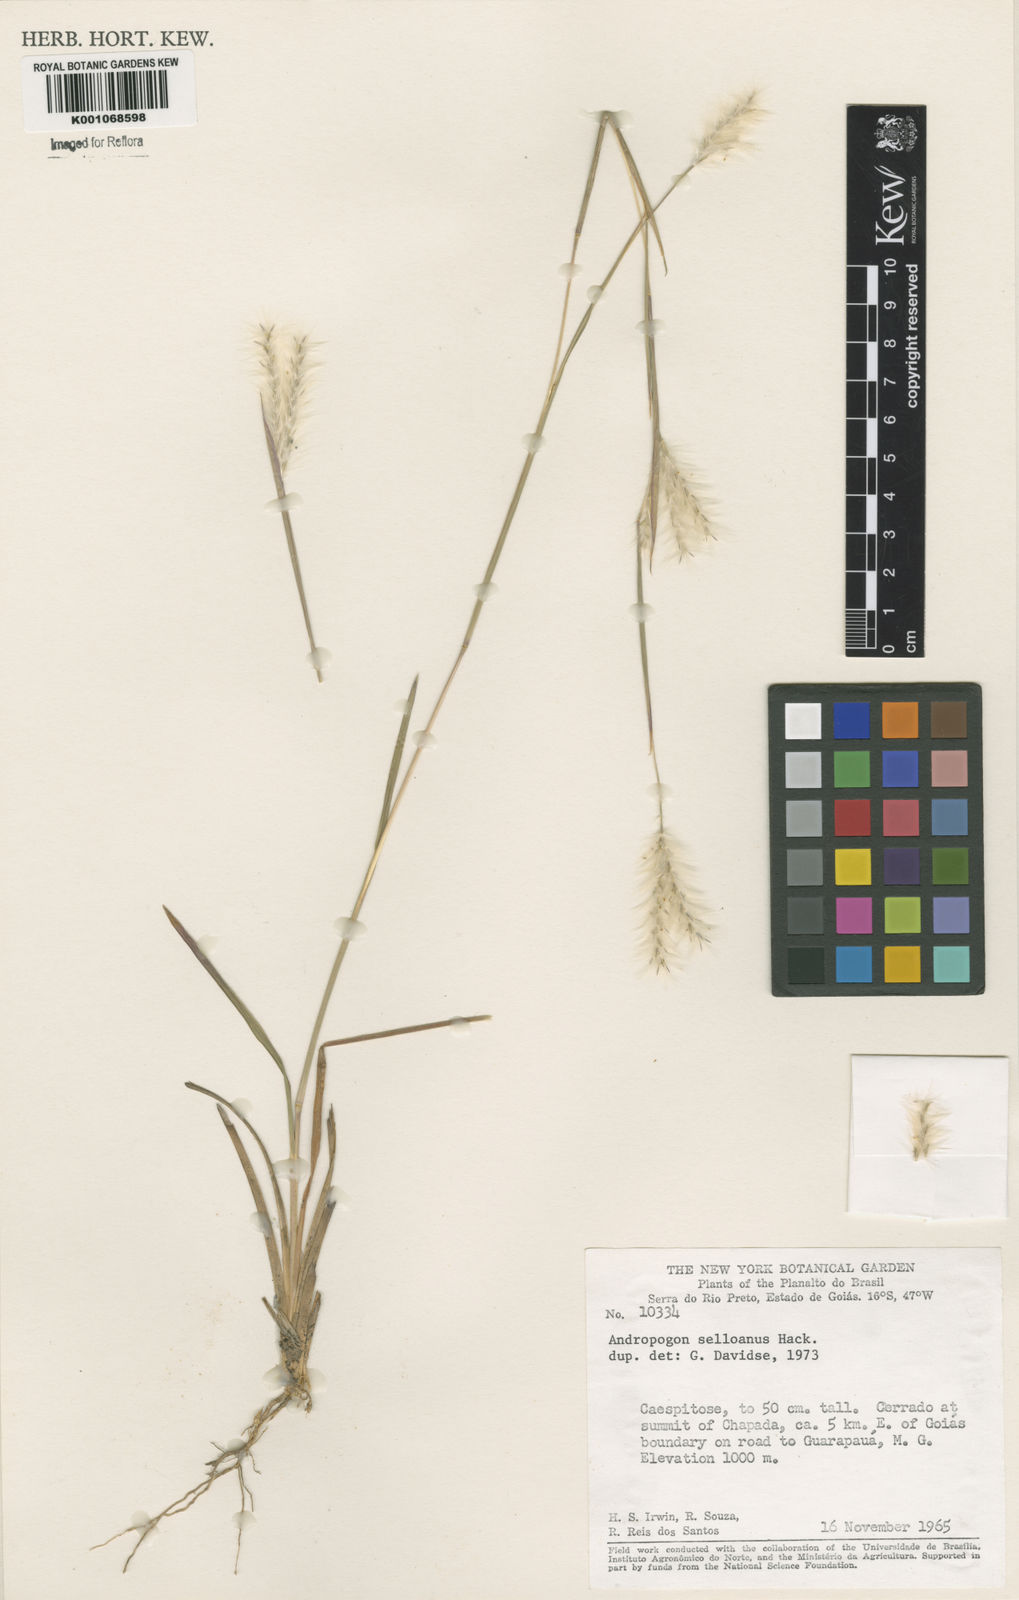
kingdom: Plantae
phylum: Tracheophyta
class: Liliopsida
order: Poales
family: Poaceae
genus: Andropogon
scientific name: Andropogon selloanus
